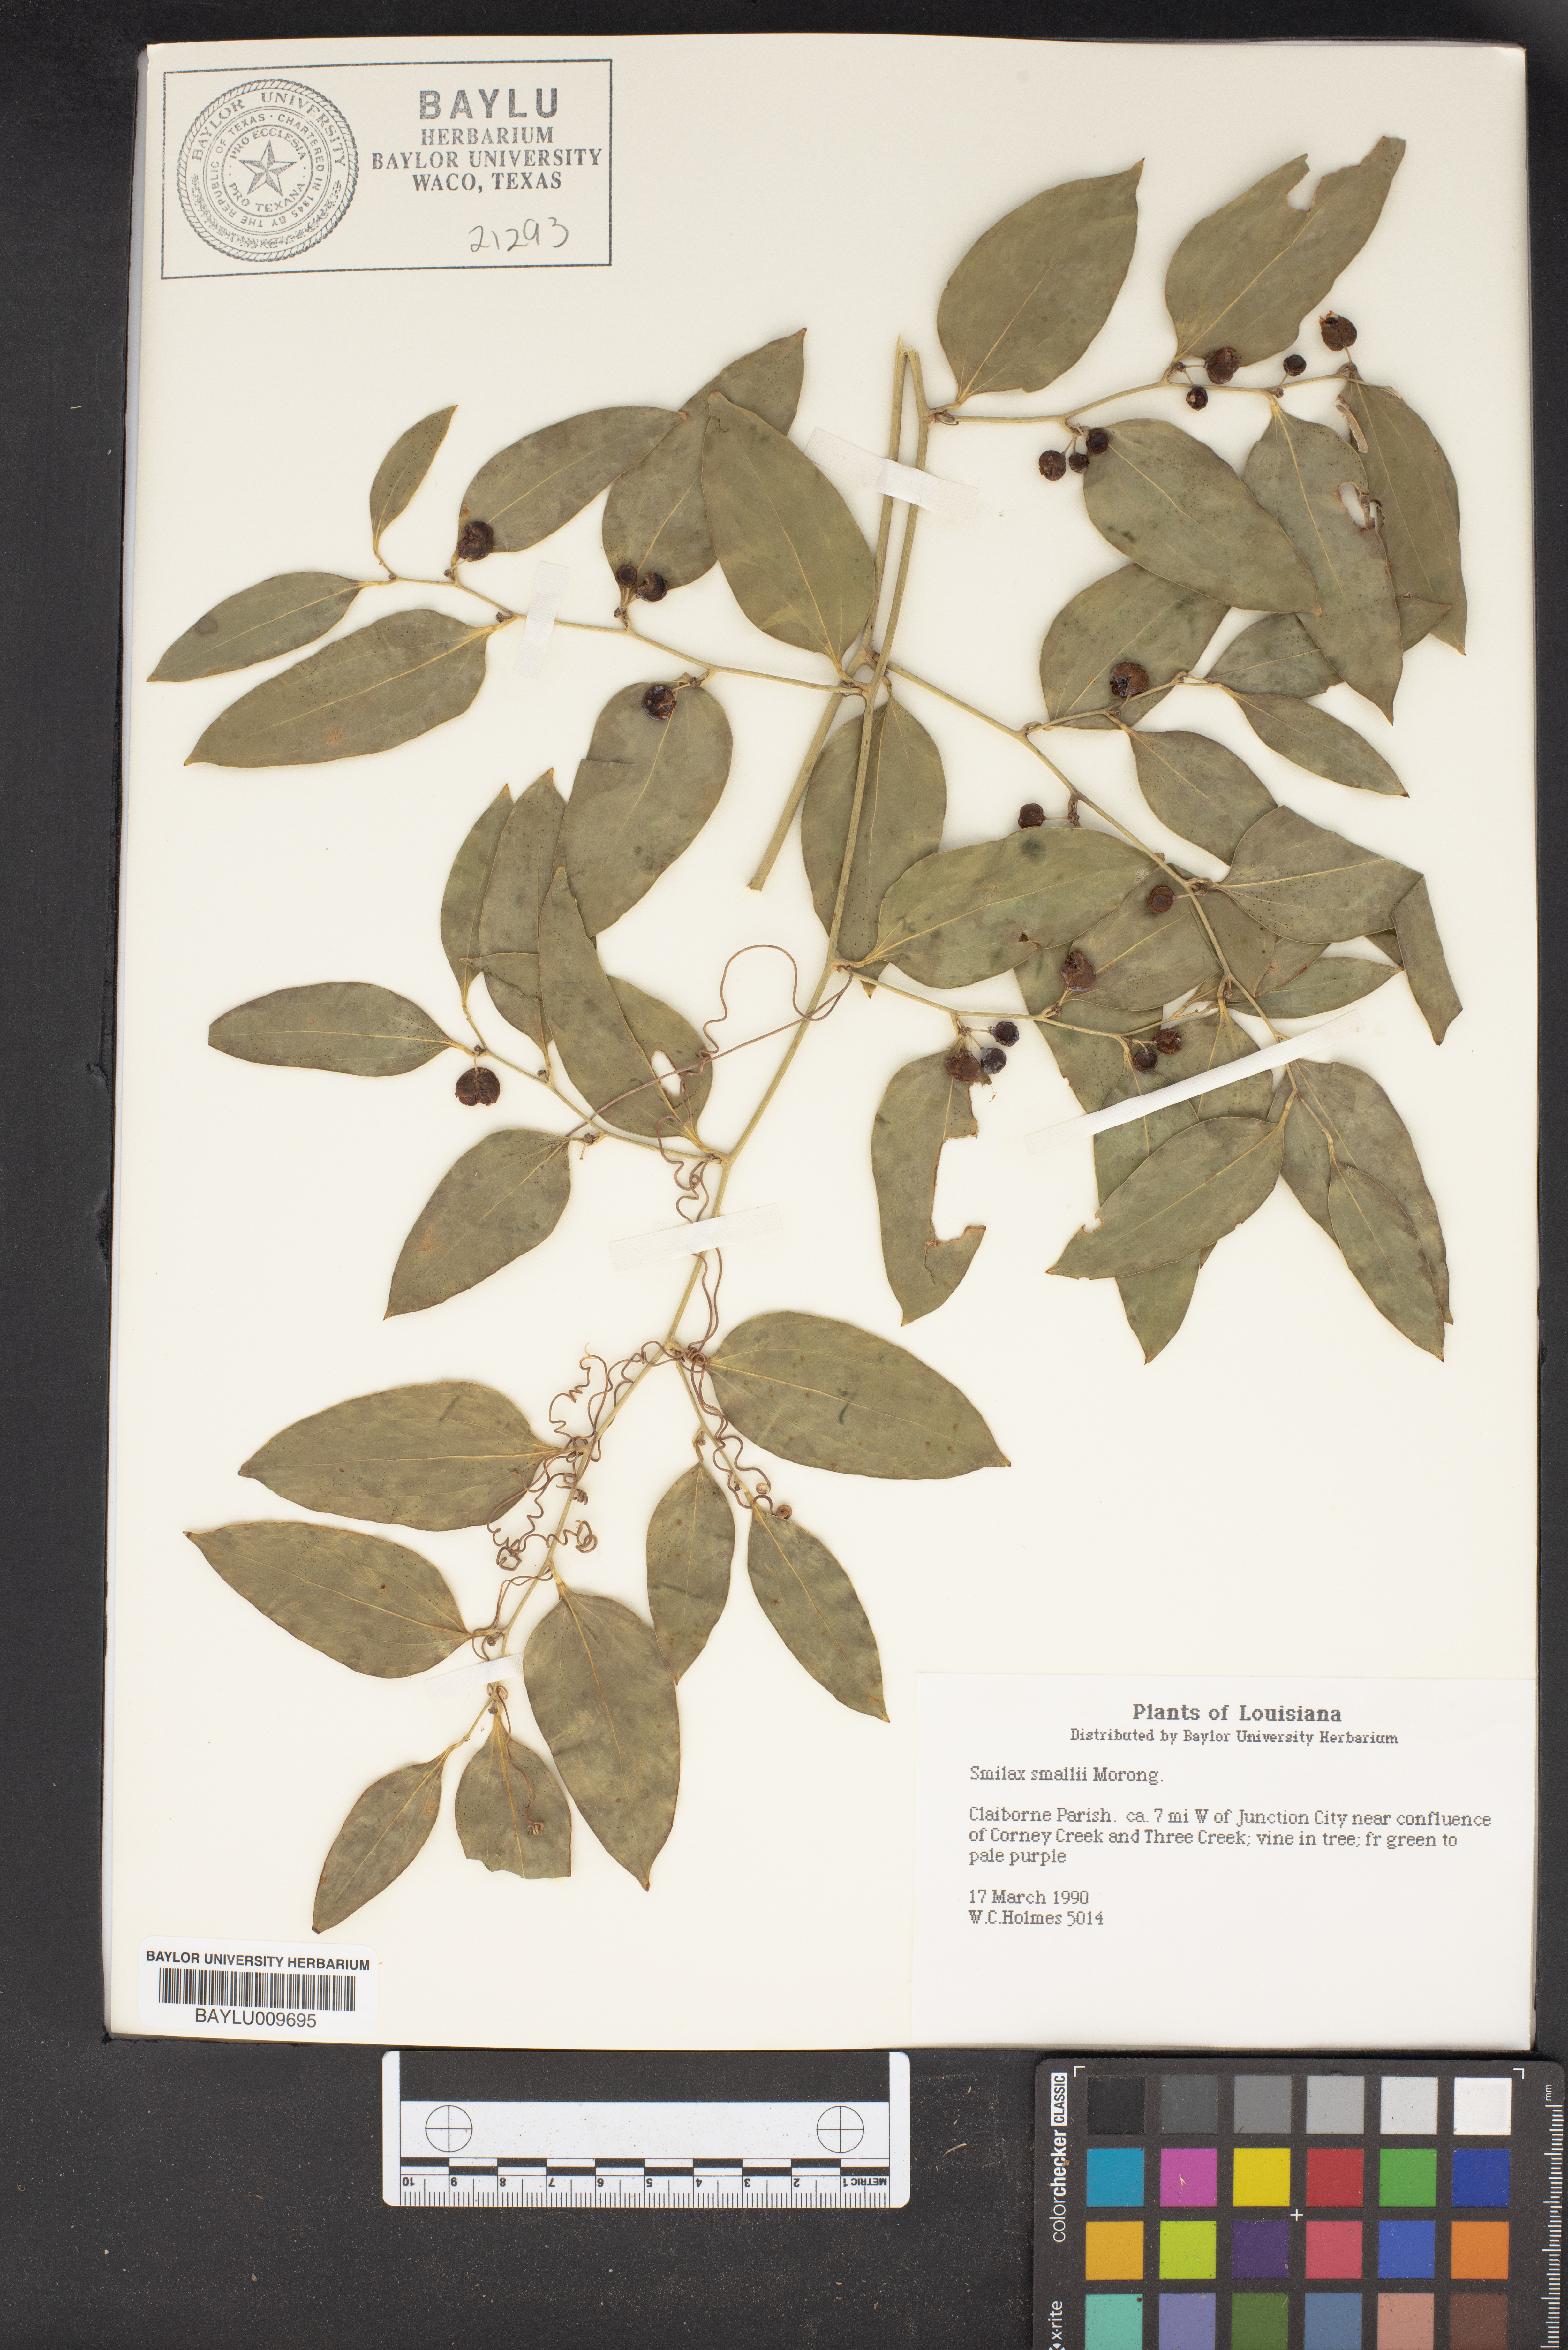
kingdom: Plantae
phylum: Tracheophyta
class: Liliopsida
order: Liliales
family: Smilacaceae
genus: Smilax
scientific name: Smilax maritima
